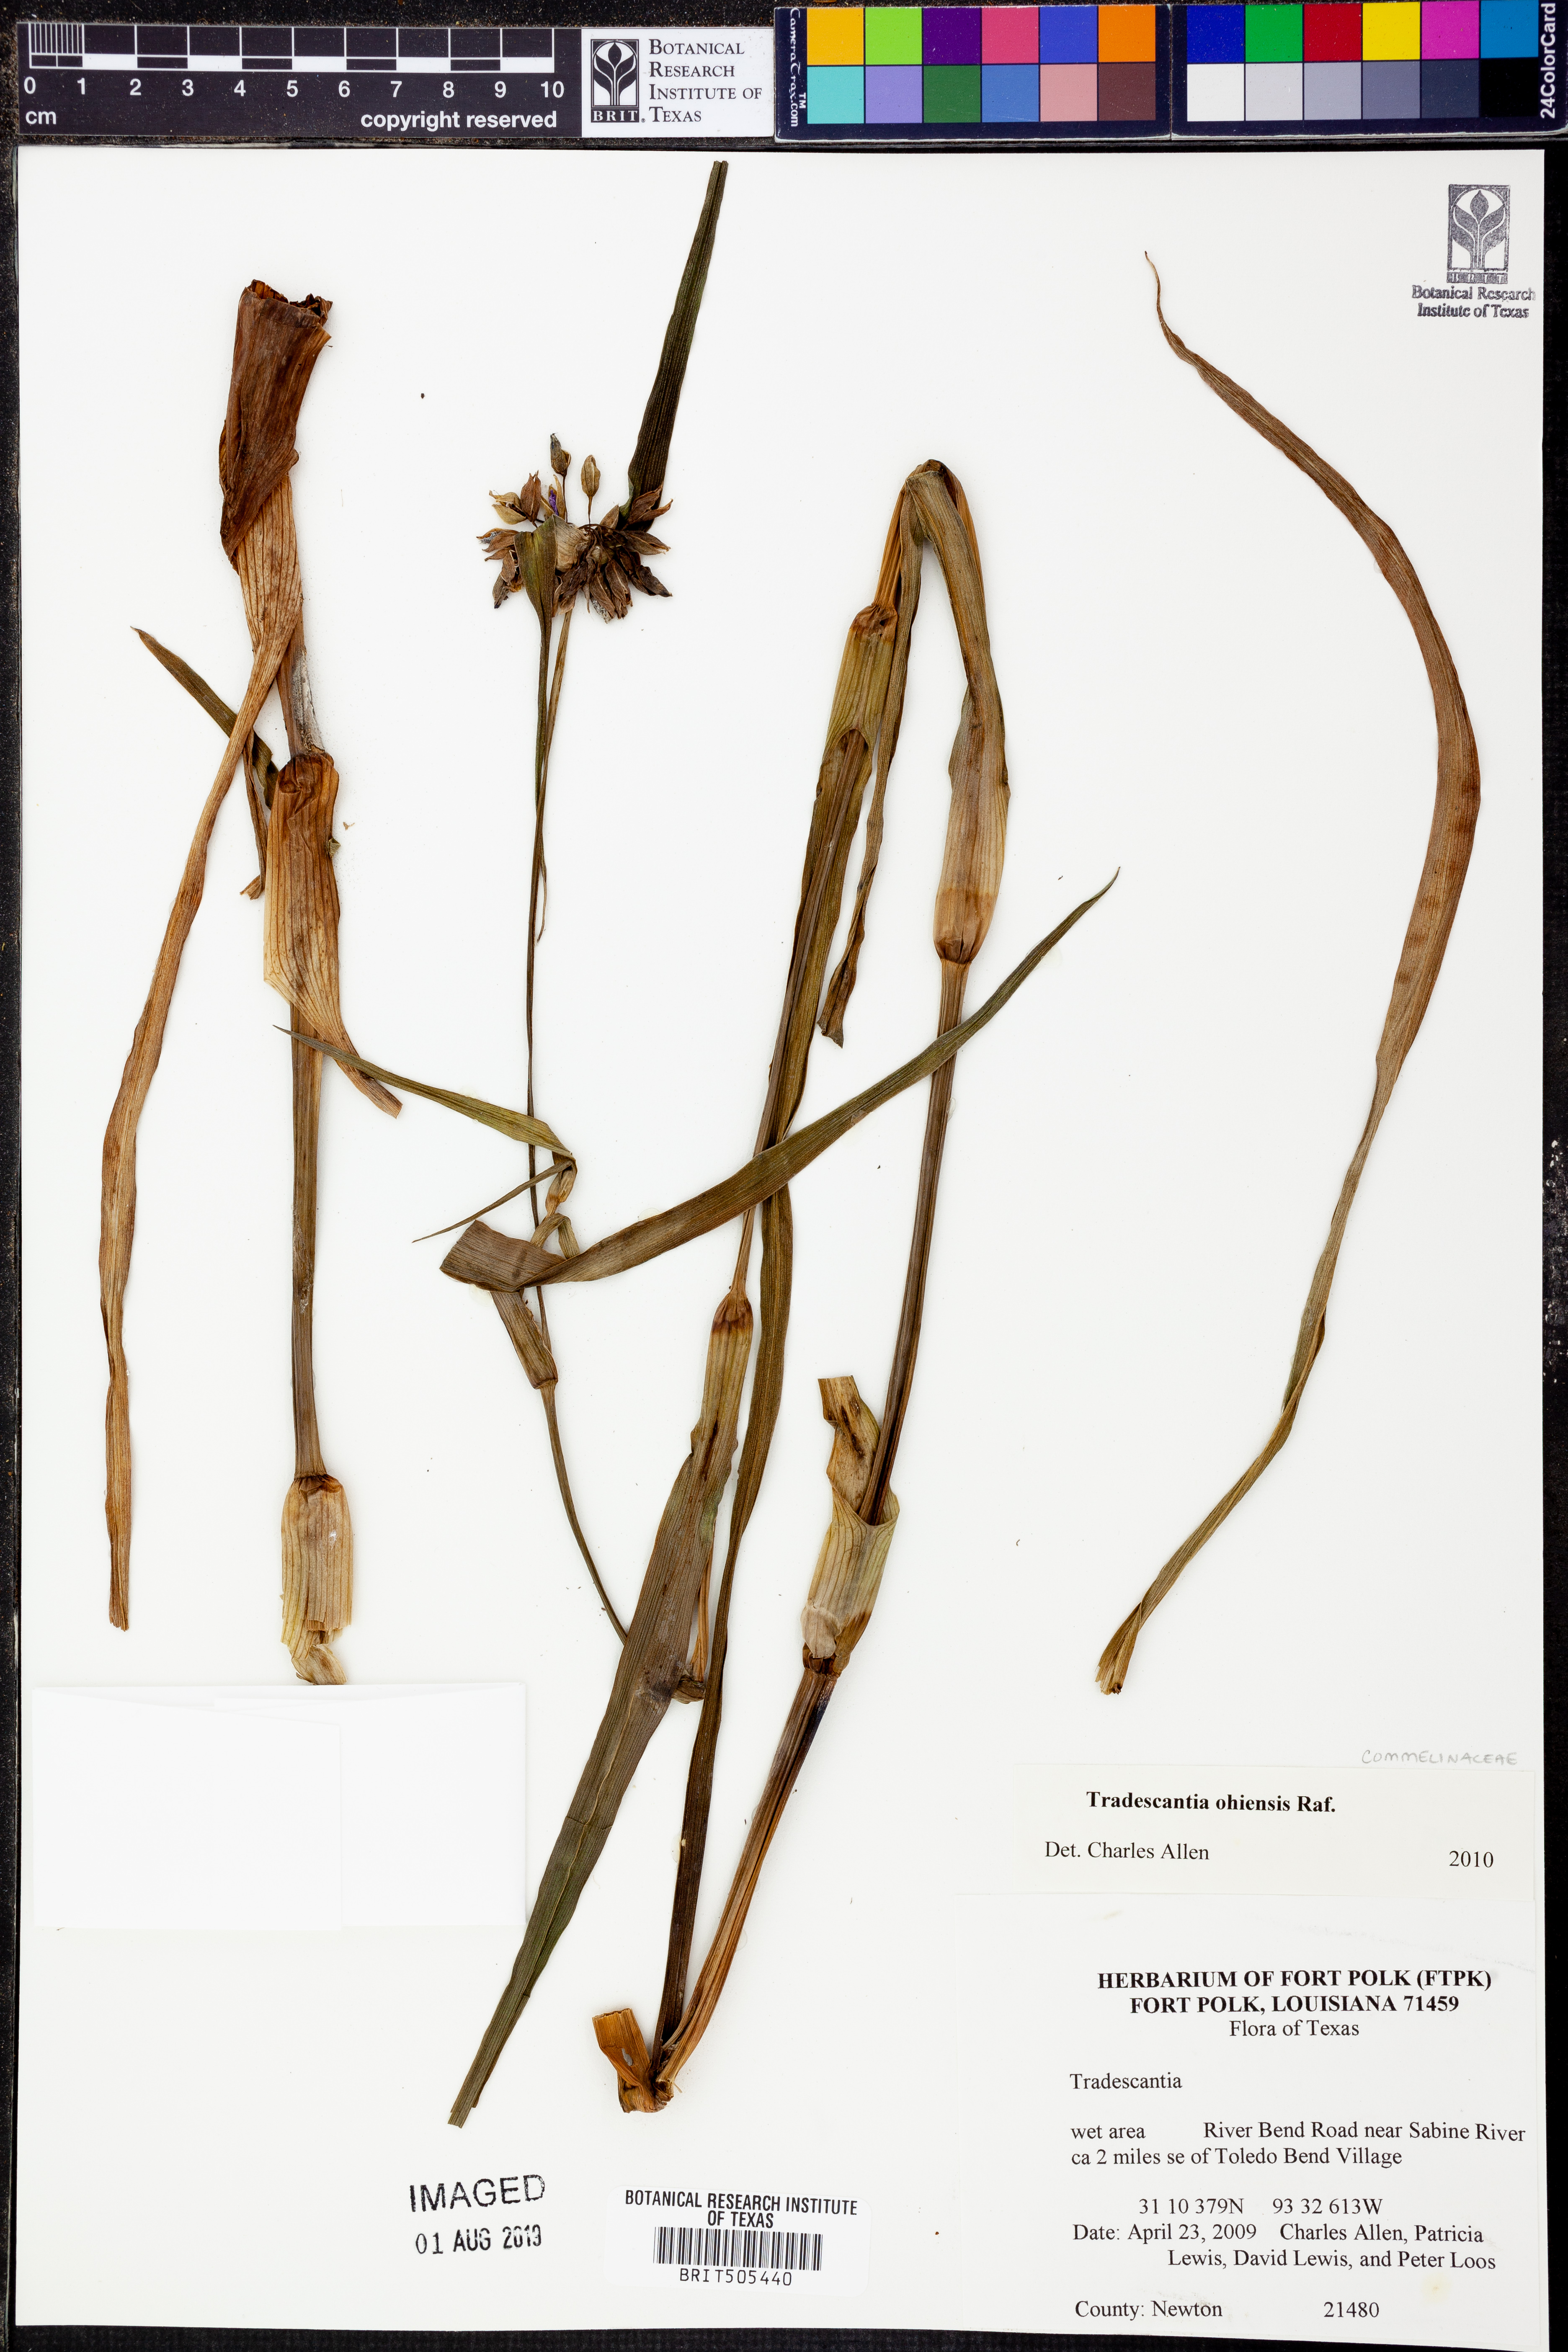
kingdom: Plantae
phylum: Tracheophyta
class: Liliopsida
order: Commelinales
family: Commelinaceae
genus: Tradescantia
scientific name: Tradescantia ohiensis
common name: Ohio spiderwort
